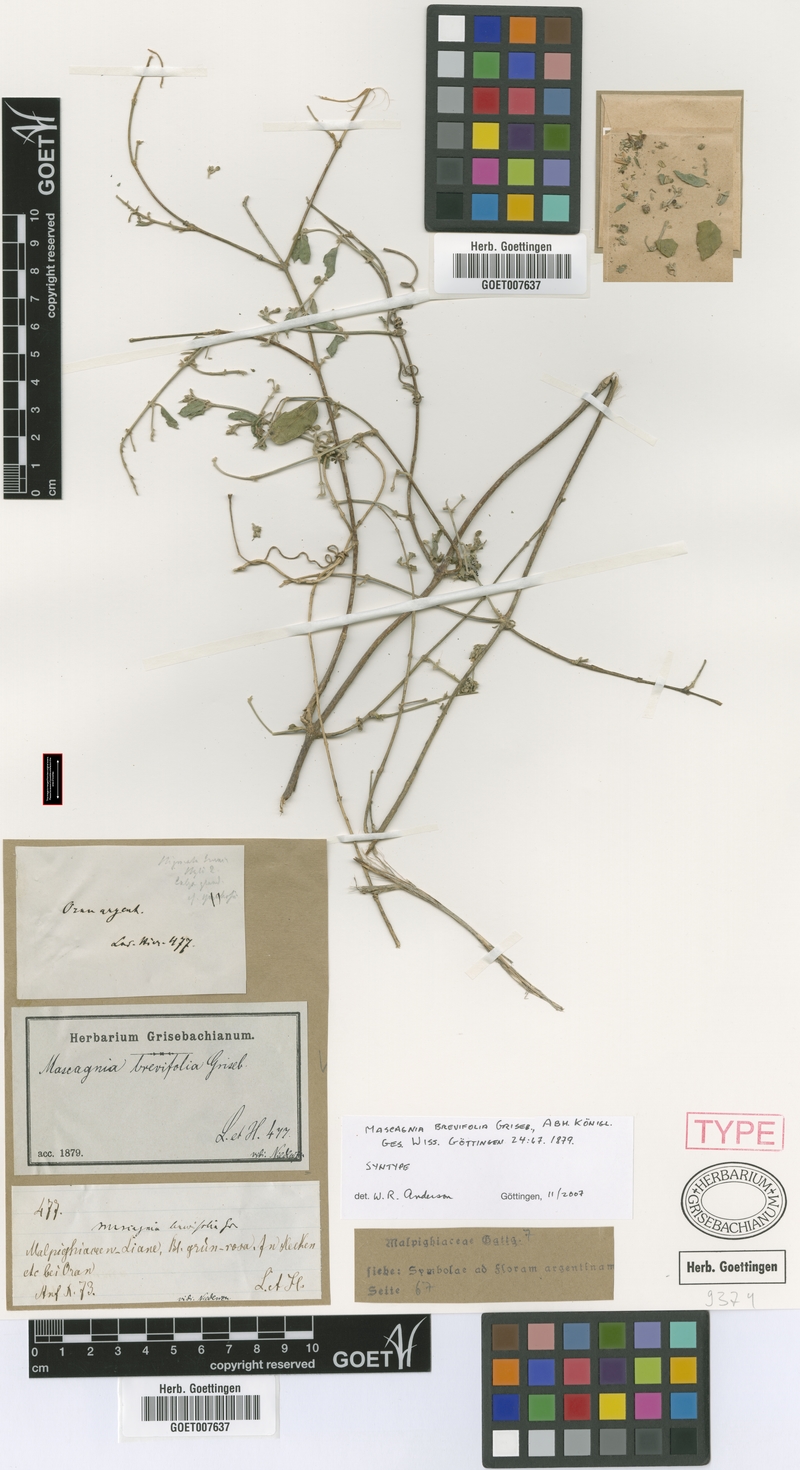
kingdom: Plantae
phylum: Tracheophyta
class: Magnoliopsida
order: Malpighiales
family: Malpighiaceae
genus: Mascagnia
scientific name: Mascagnia brevifolia
